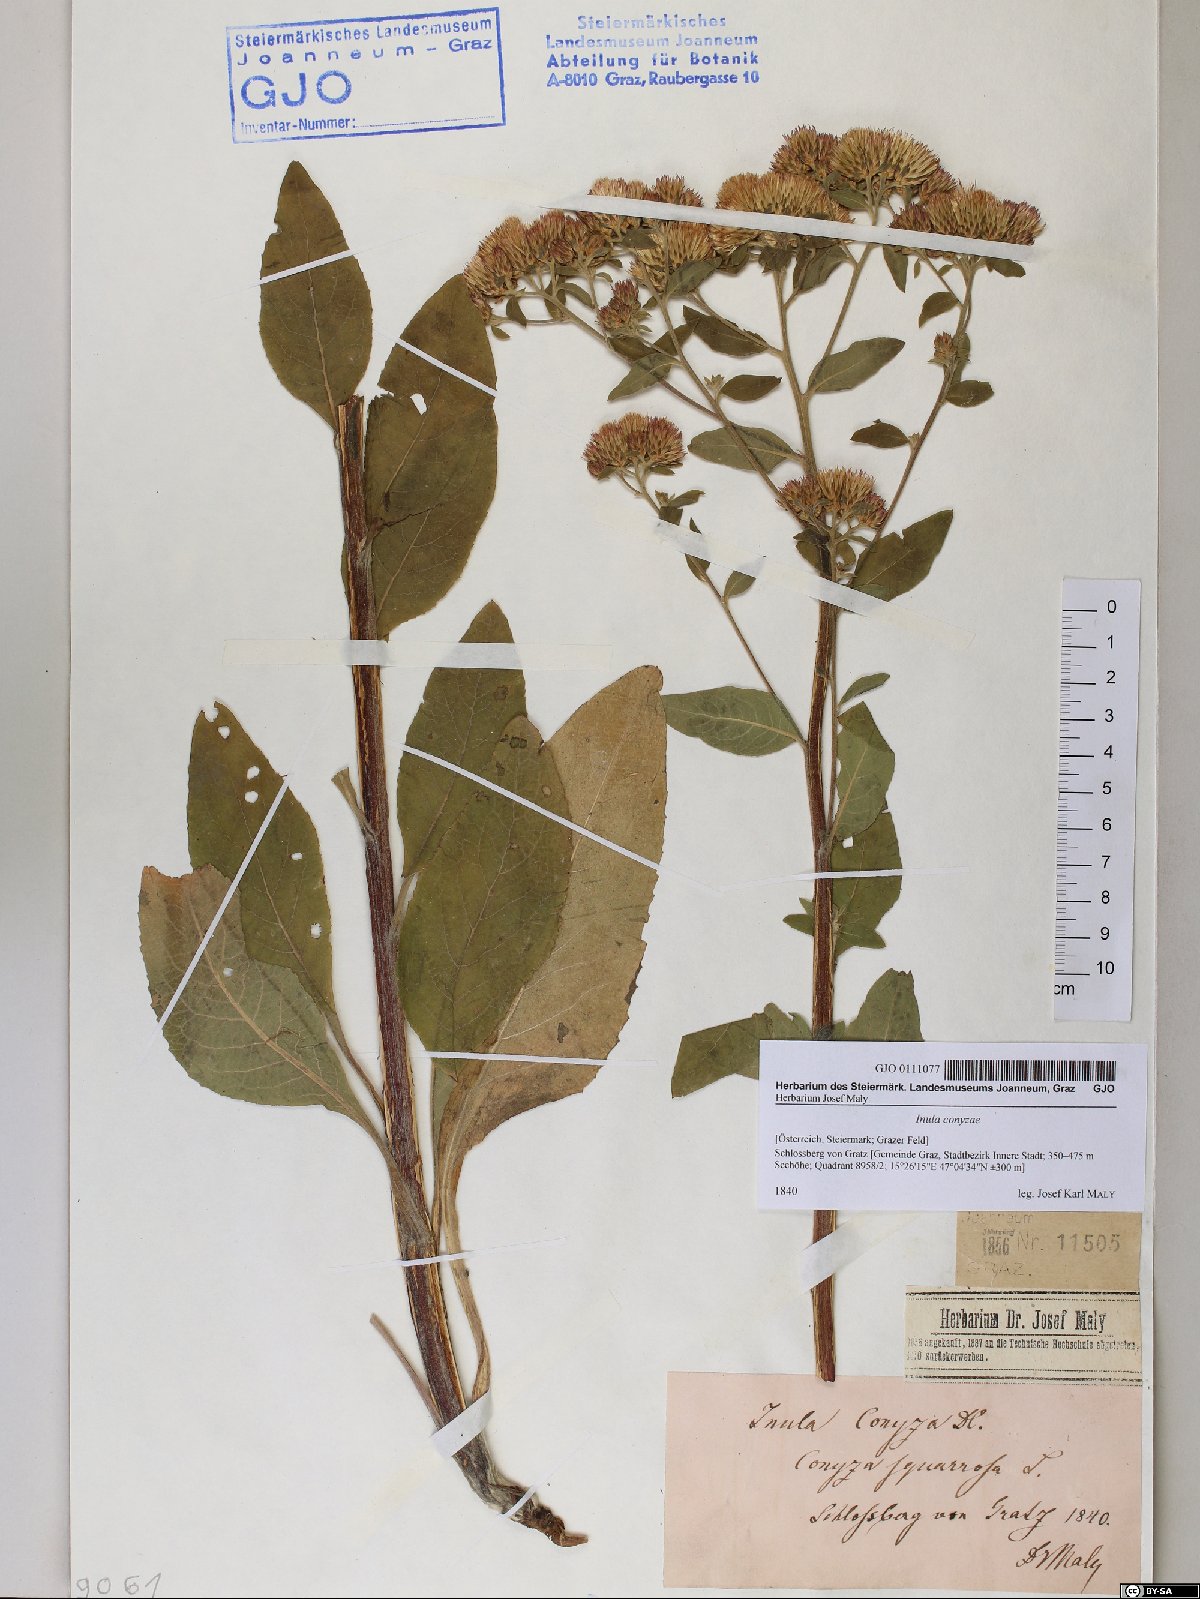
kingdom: Plantae
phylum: Tracheophyta
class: Magnoliopsida
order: Asterales
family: Asteraceae
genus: Pentanema
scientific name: Pentanema squarrosum
